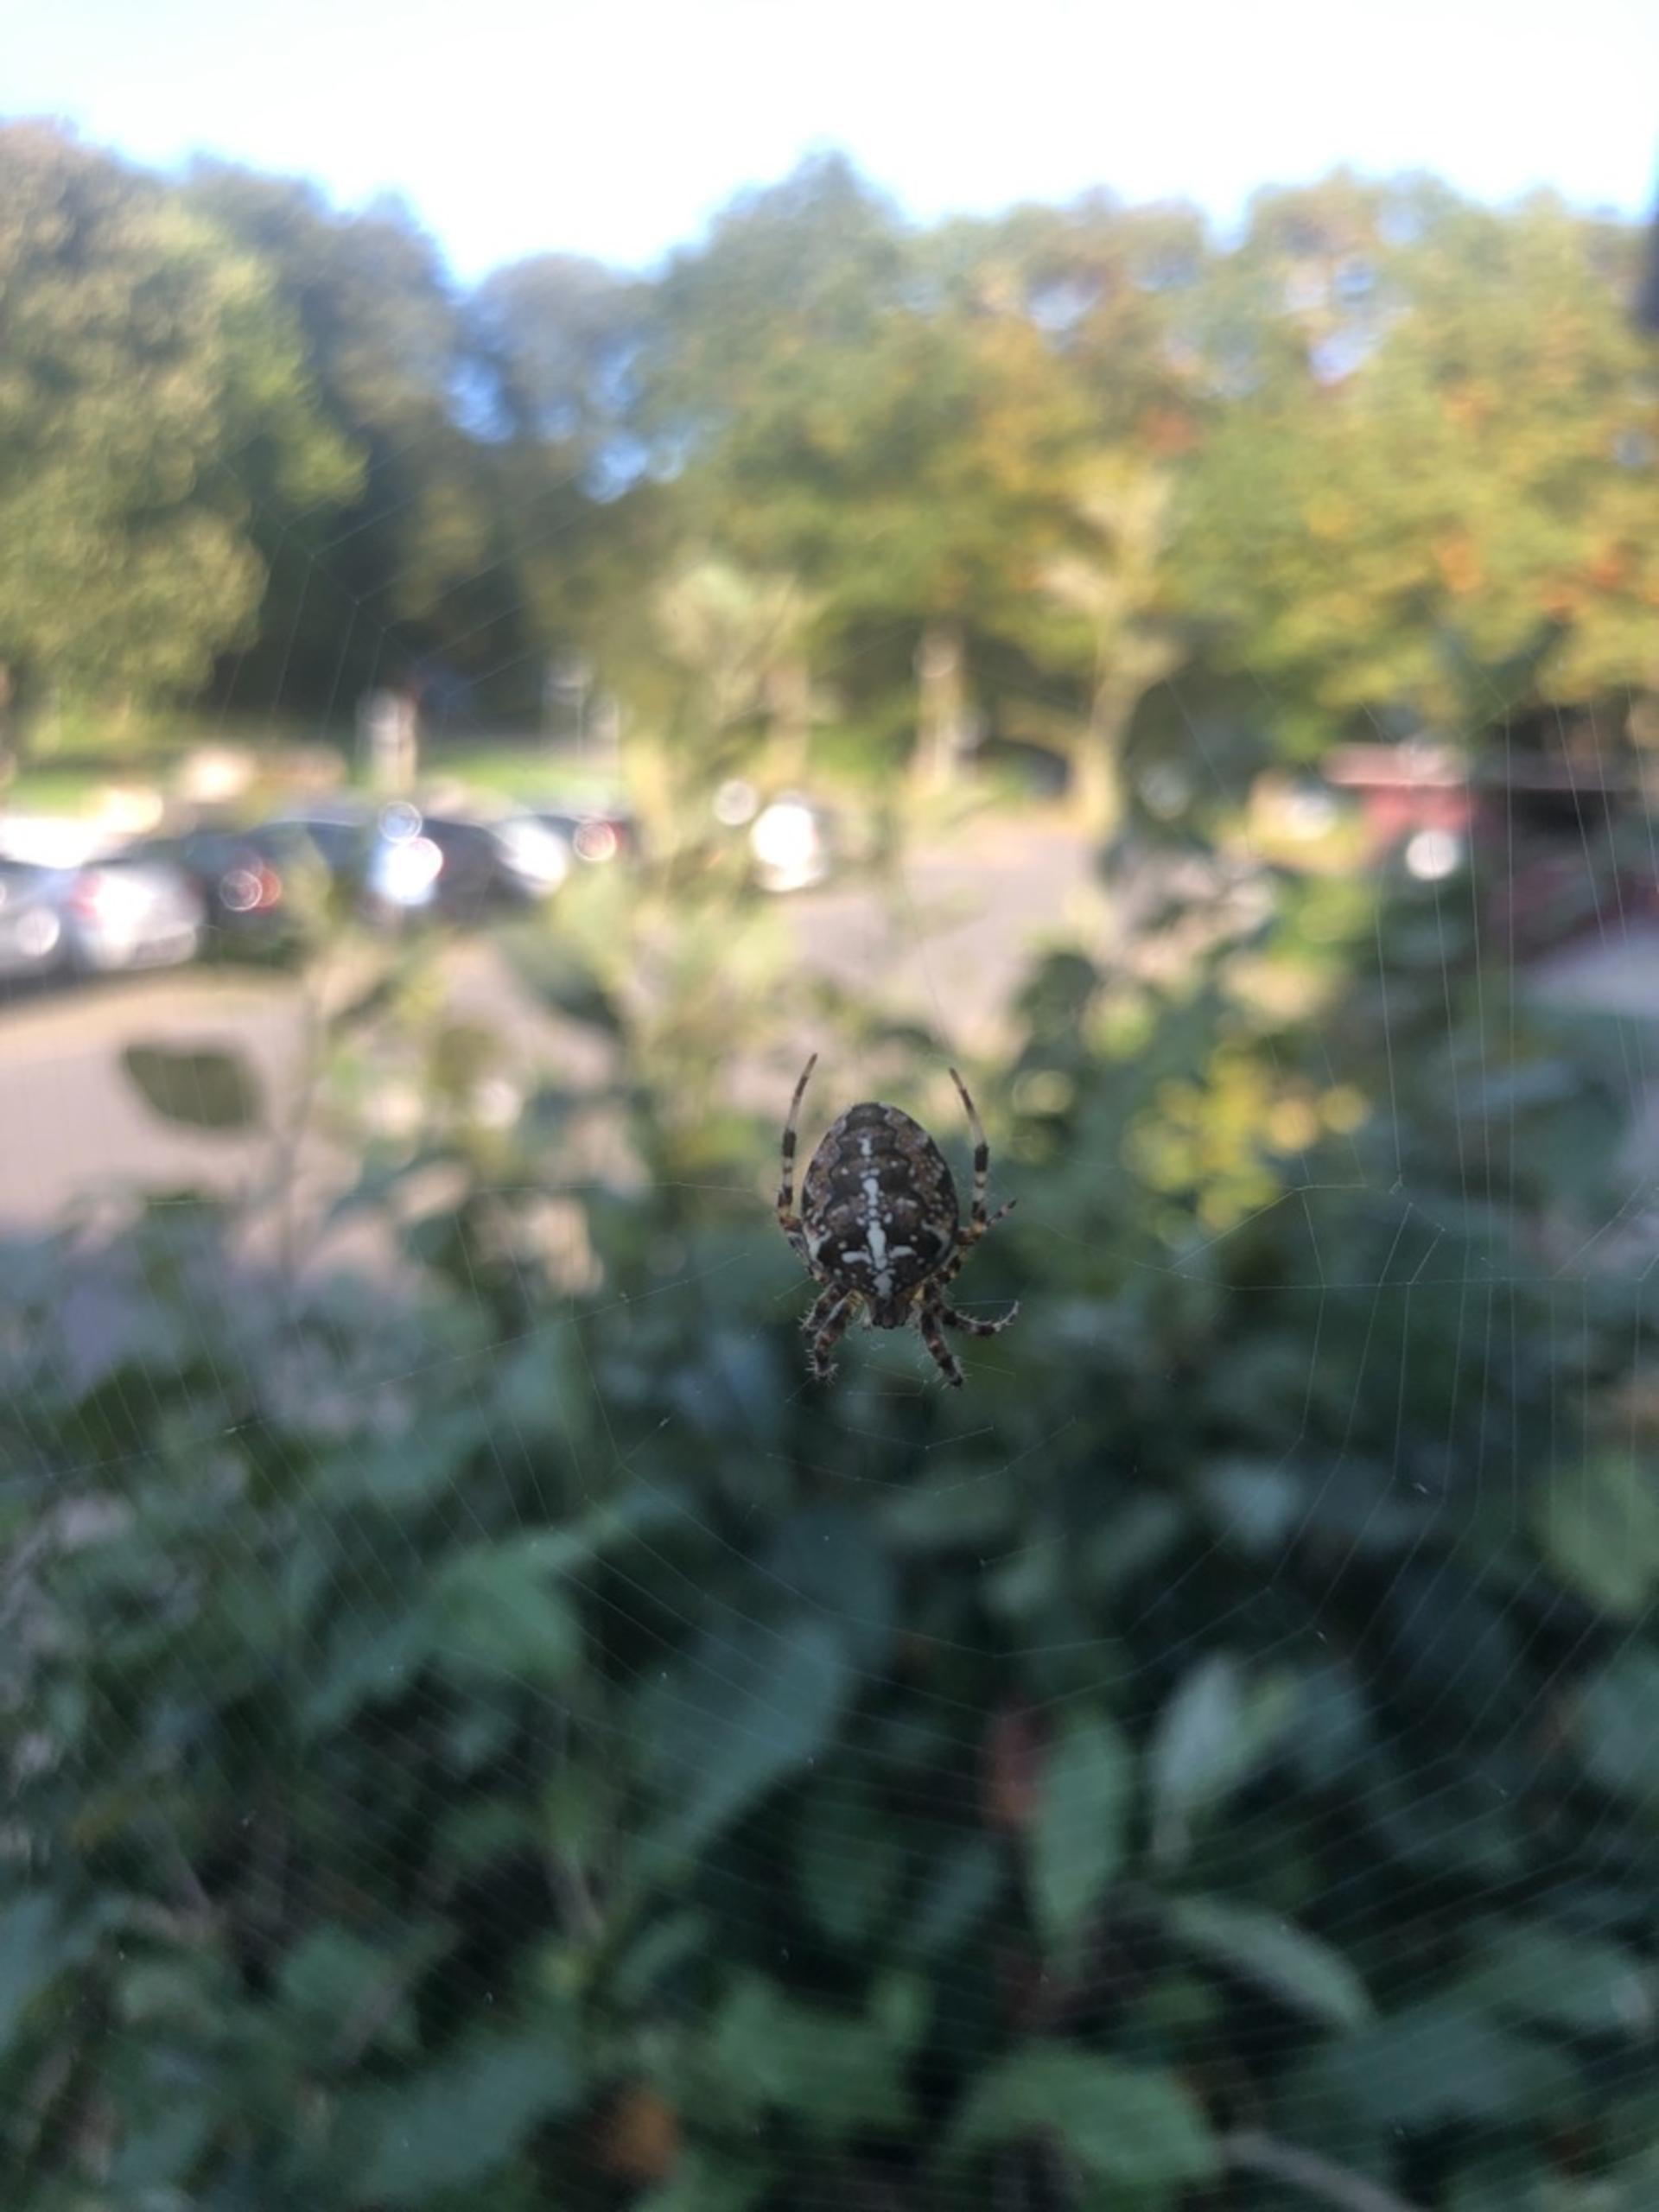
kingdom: Animalia
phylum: Arthropoda
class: Arachnida
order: Araneae
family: Araneidae
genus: Araneus
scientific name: Araneus diadematus
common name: Korsedderkop
